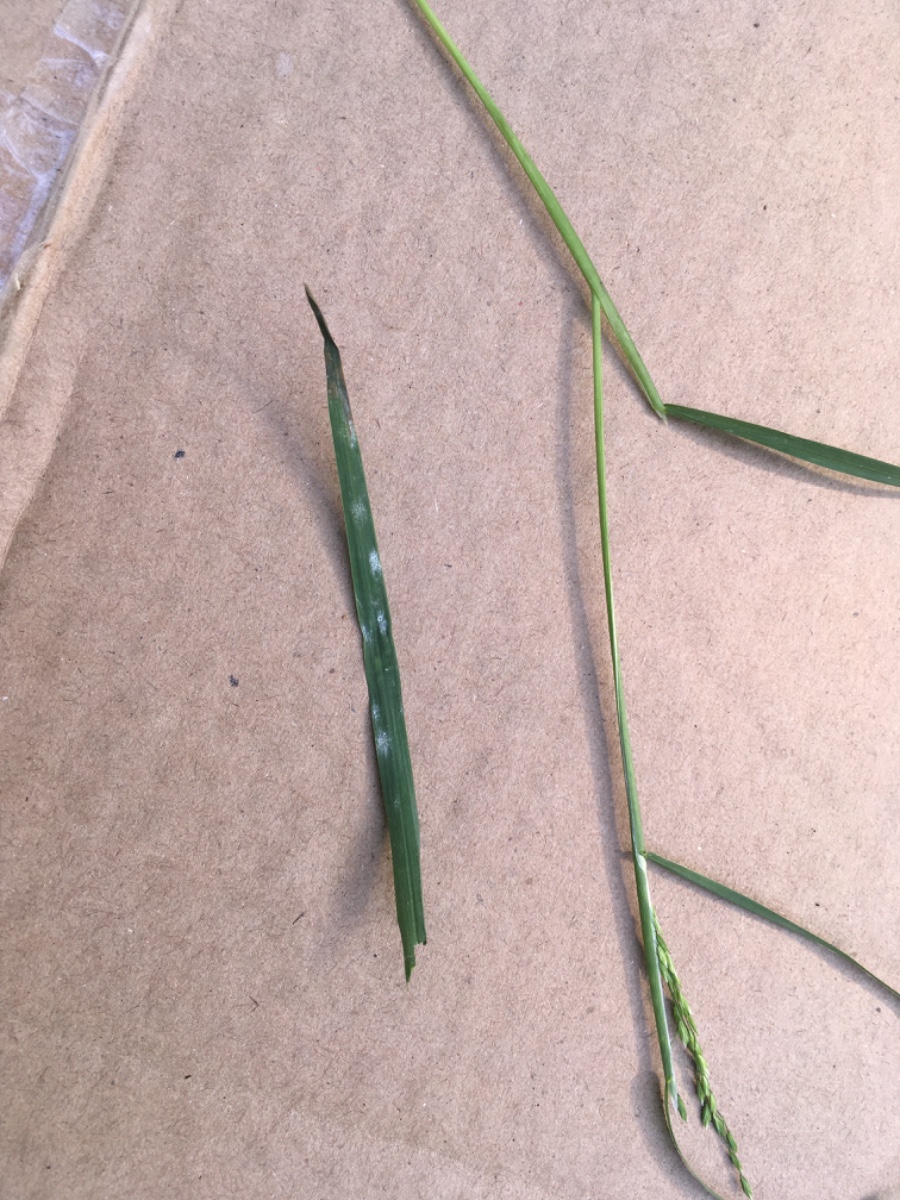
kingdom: Fungi
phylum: Ascomycota
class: Leotiomycetes
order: Helotiales
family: Erysiphaceae
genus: Blumeria
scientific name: Blumeria graminis
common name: græs-meldug
